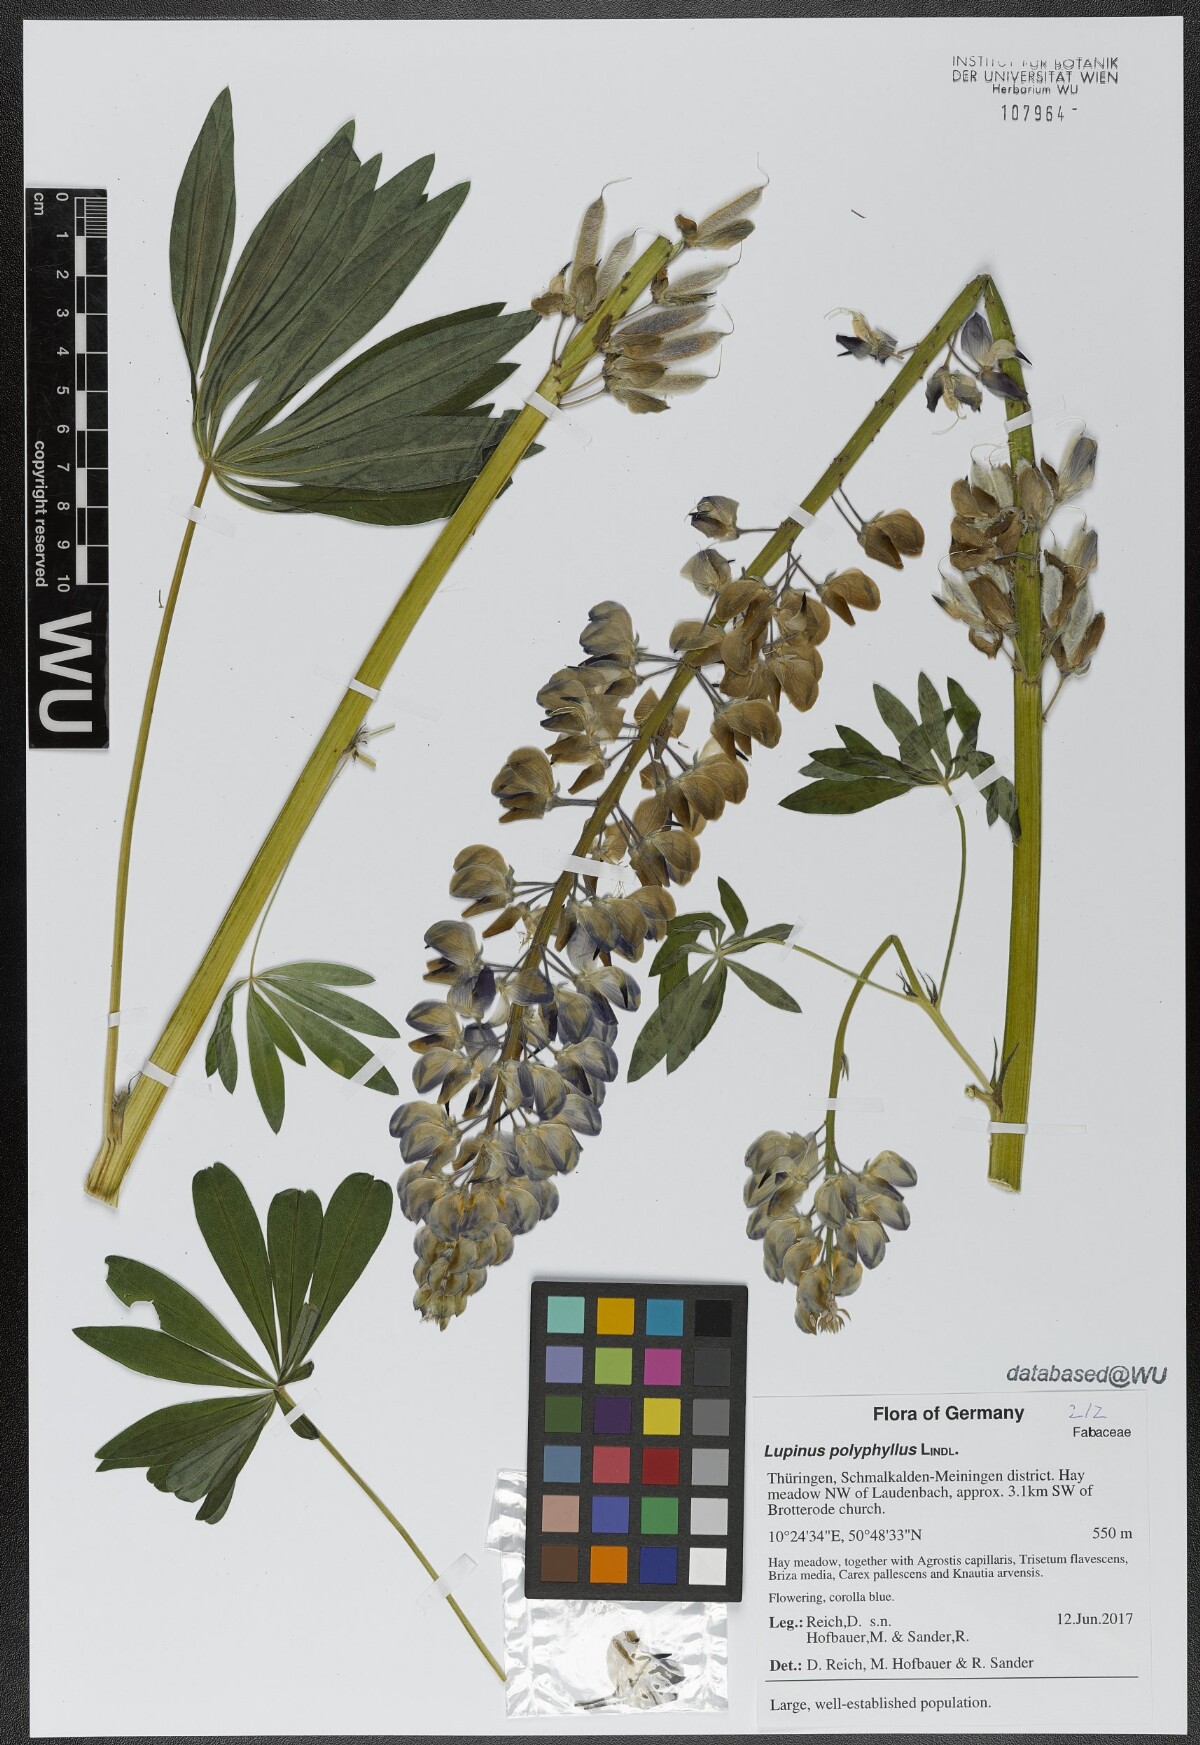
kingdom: Plantae
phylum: Tracheophyta
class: Magnoliopsida
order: Fabales
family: Fabaceae
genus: Lupinus
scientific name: Lupinus polyphyllus
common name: Garden lupin
